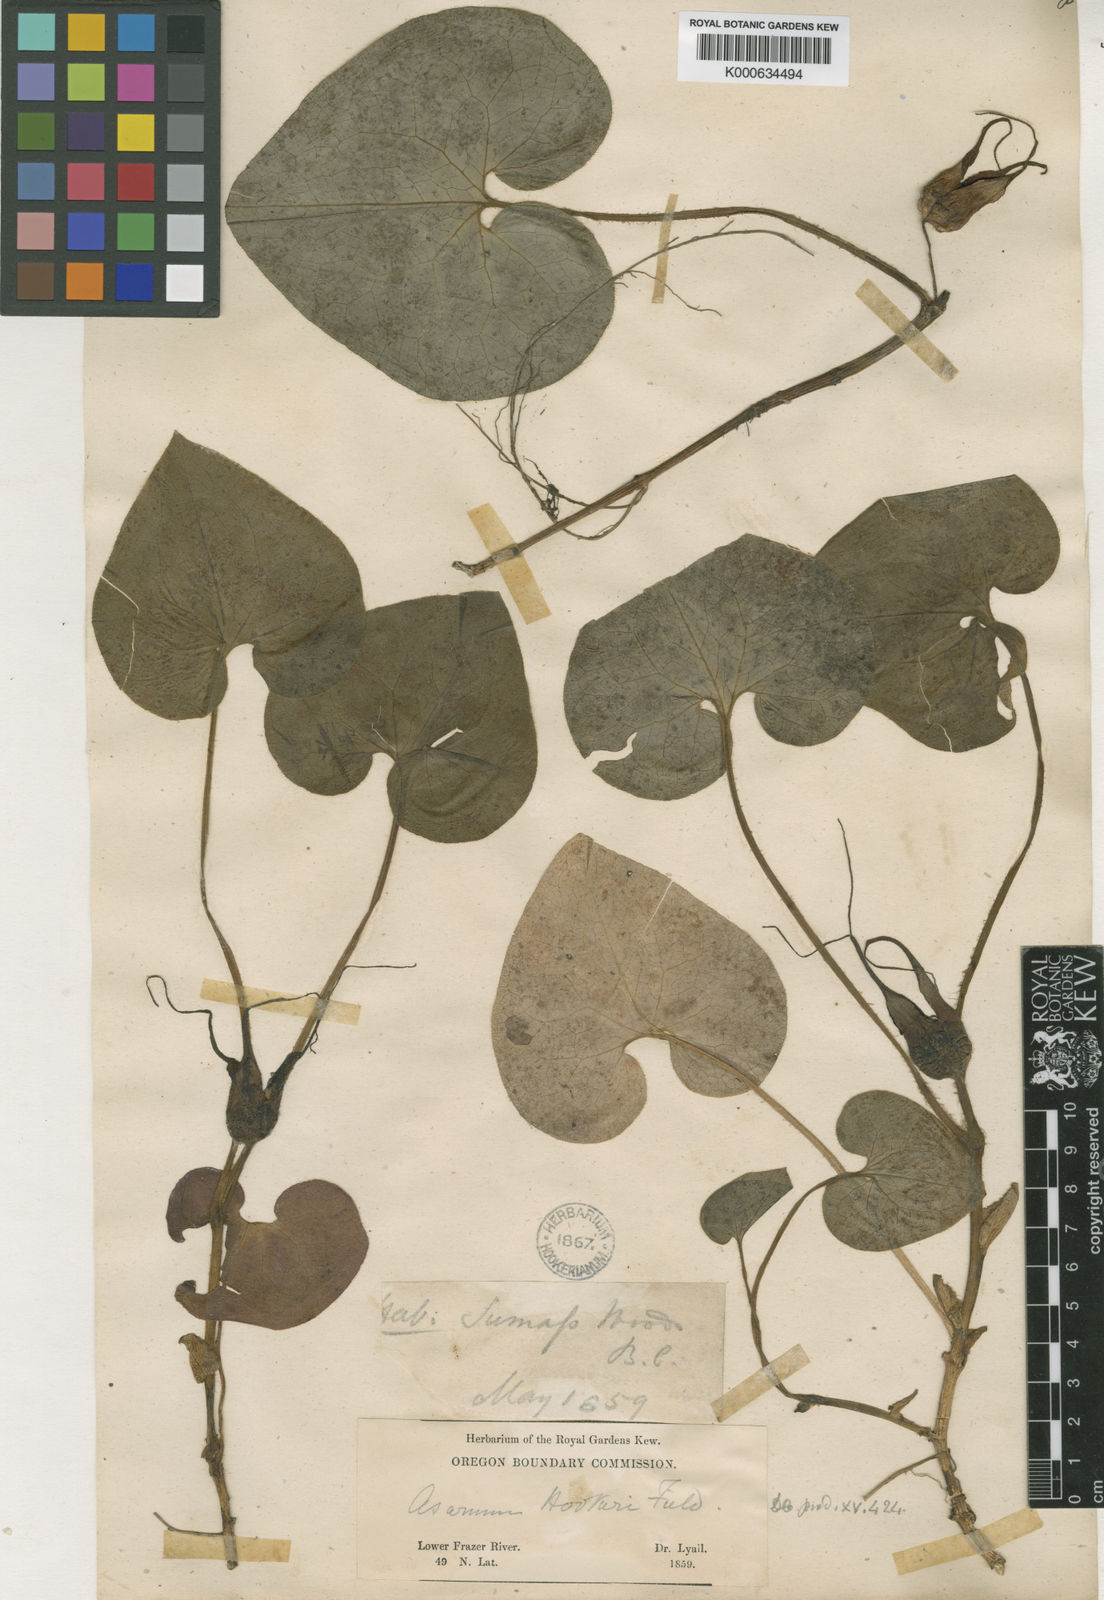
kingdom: Plantae
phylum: Tracheophyta
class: Magnoliopsida
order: Piperales
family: Aristolochiaceae
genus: Asarum
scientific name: Asarum caudatum
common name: Wild ginger
